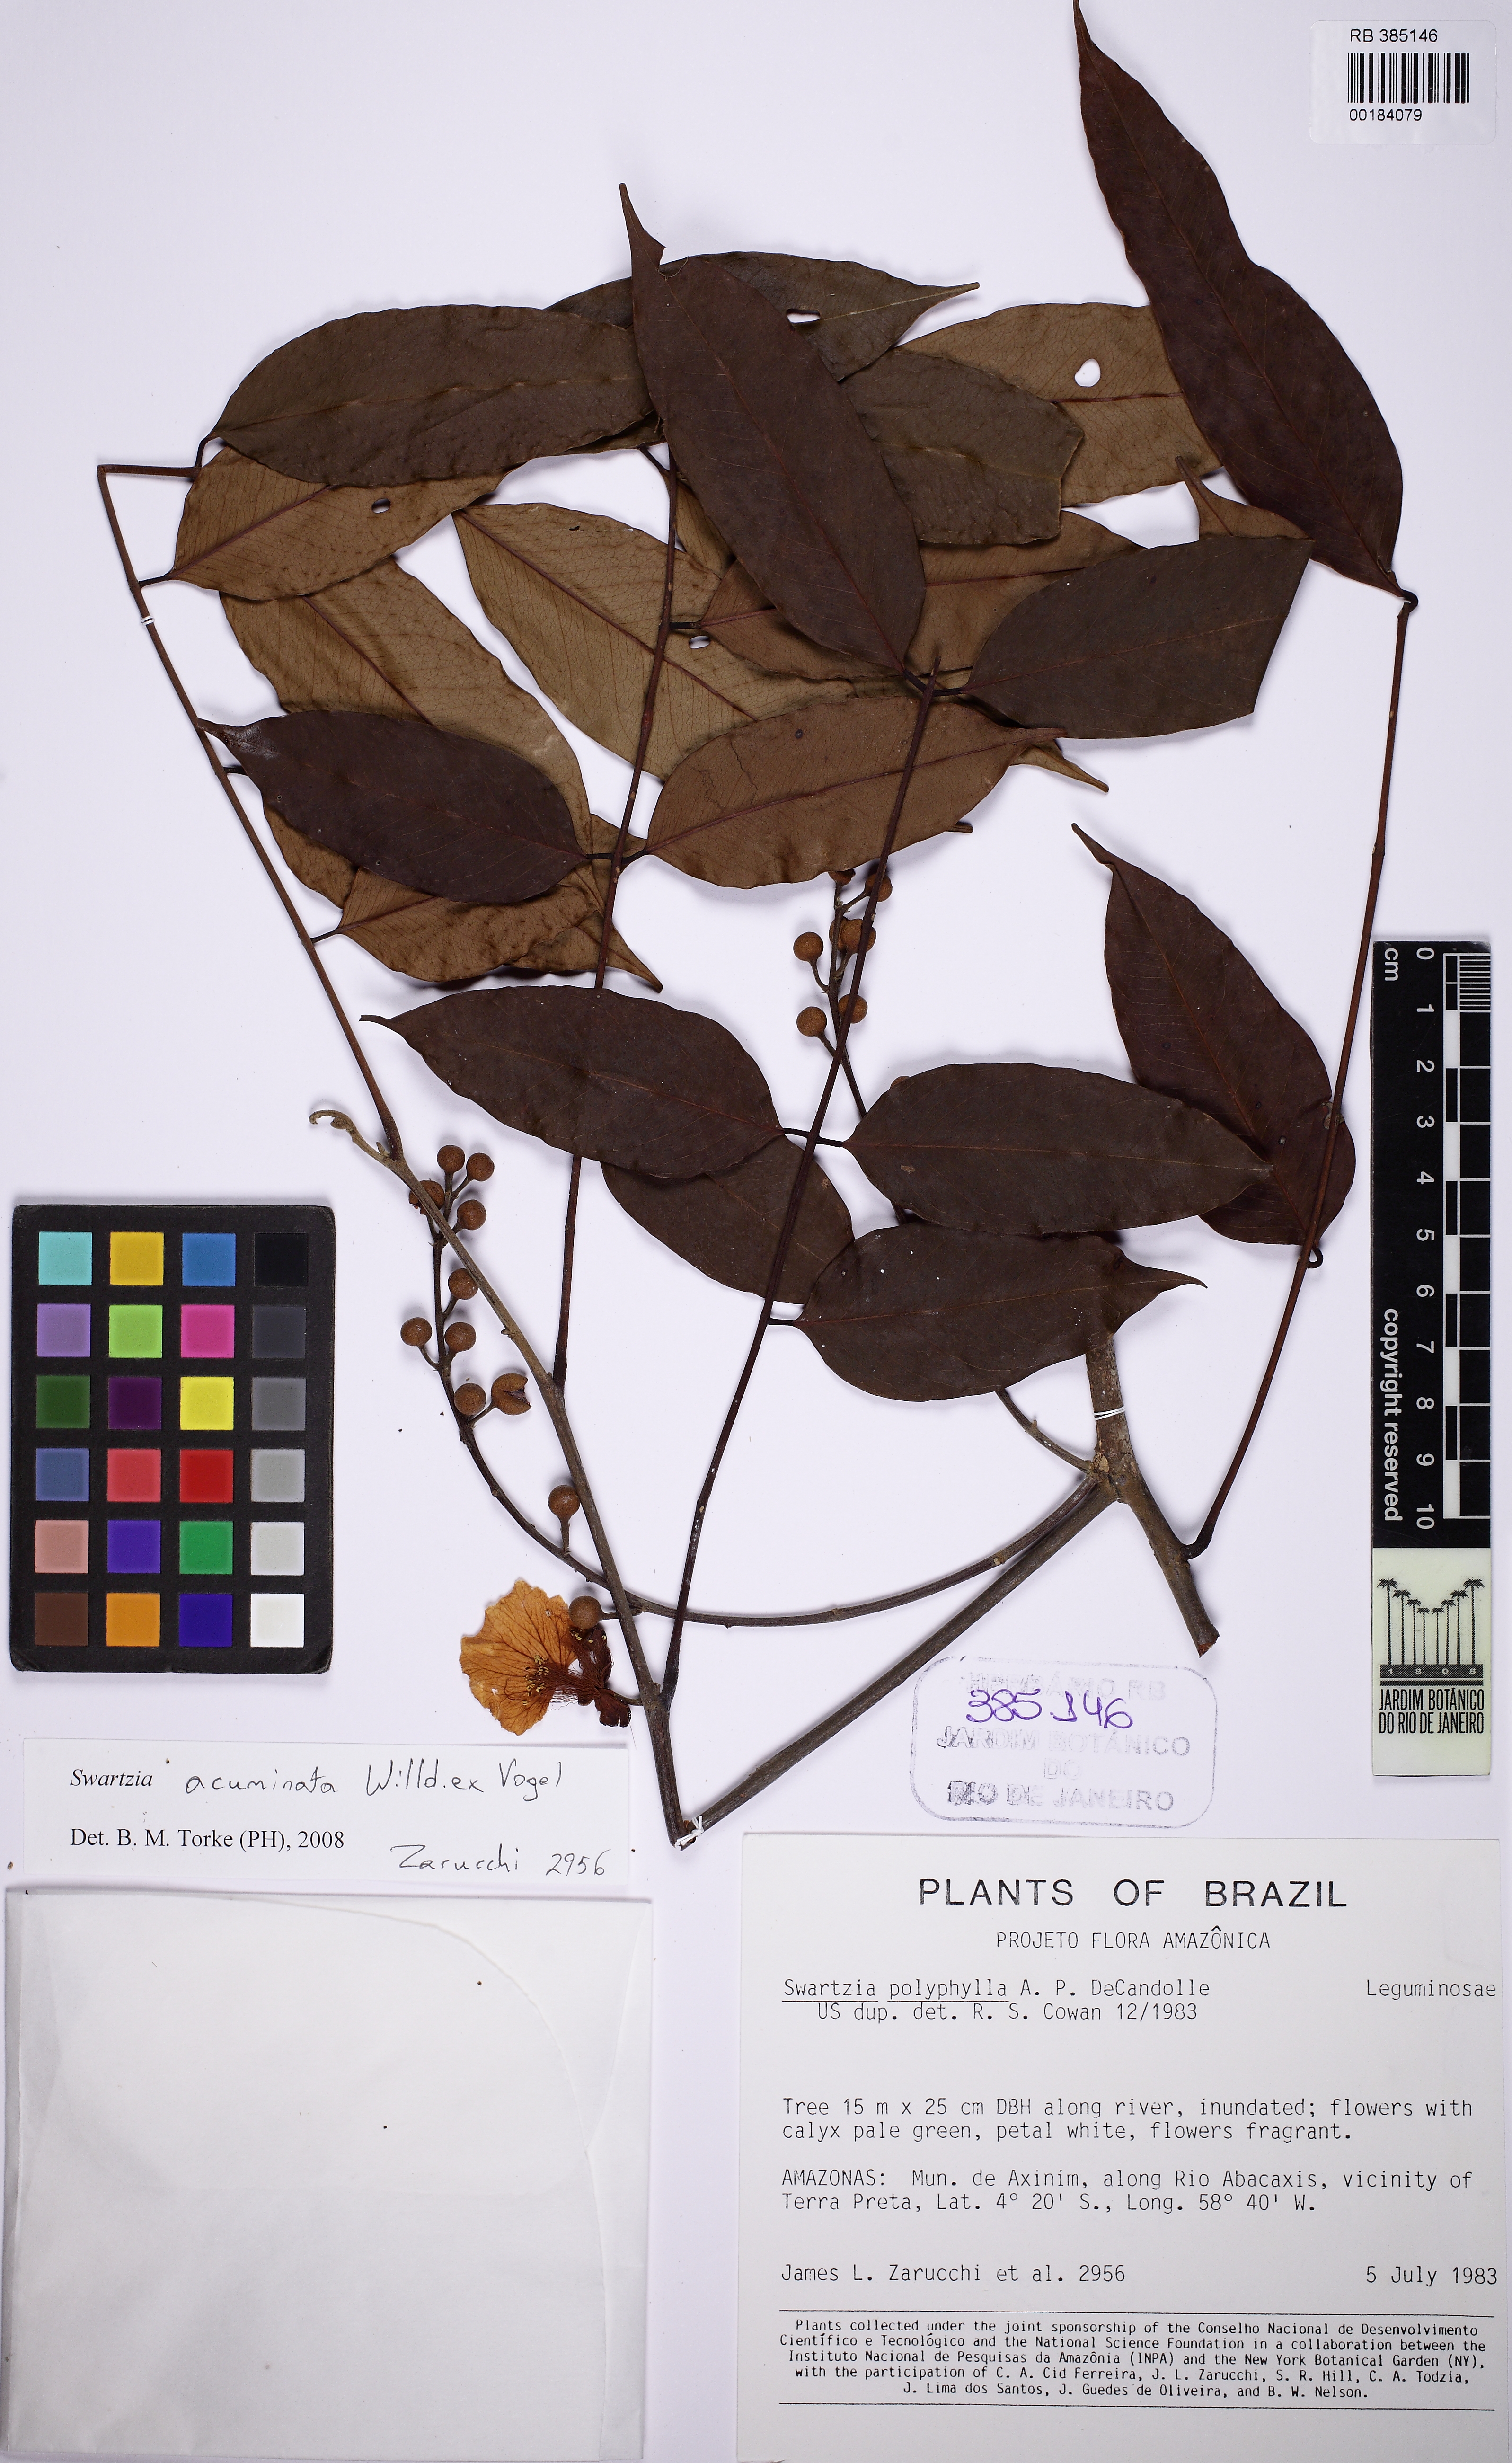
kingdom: Plantae
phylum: Tracheophyta
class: Magnoliopsida
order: Fabales
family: Fabaceae
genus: Swartzia
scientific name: Swartzia acuminata
